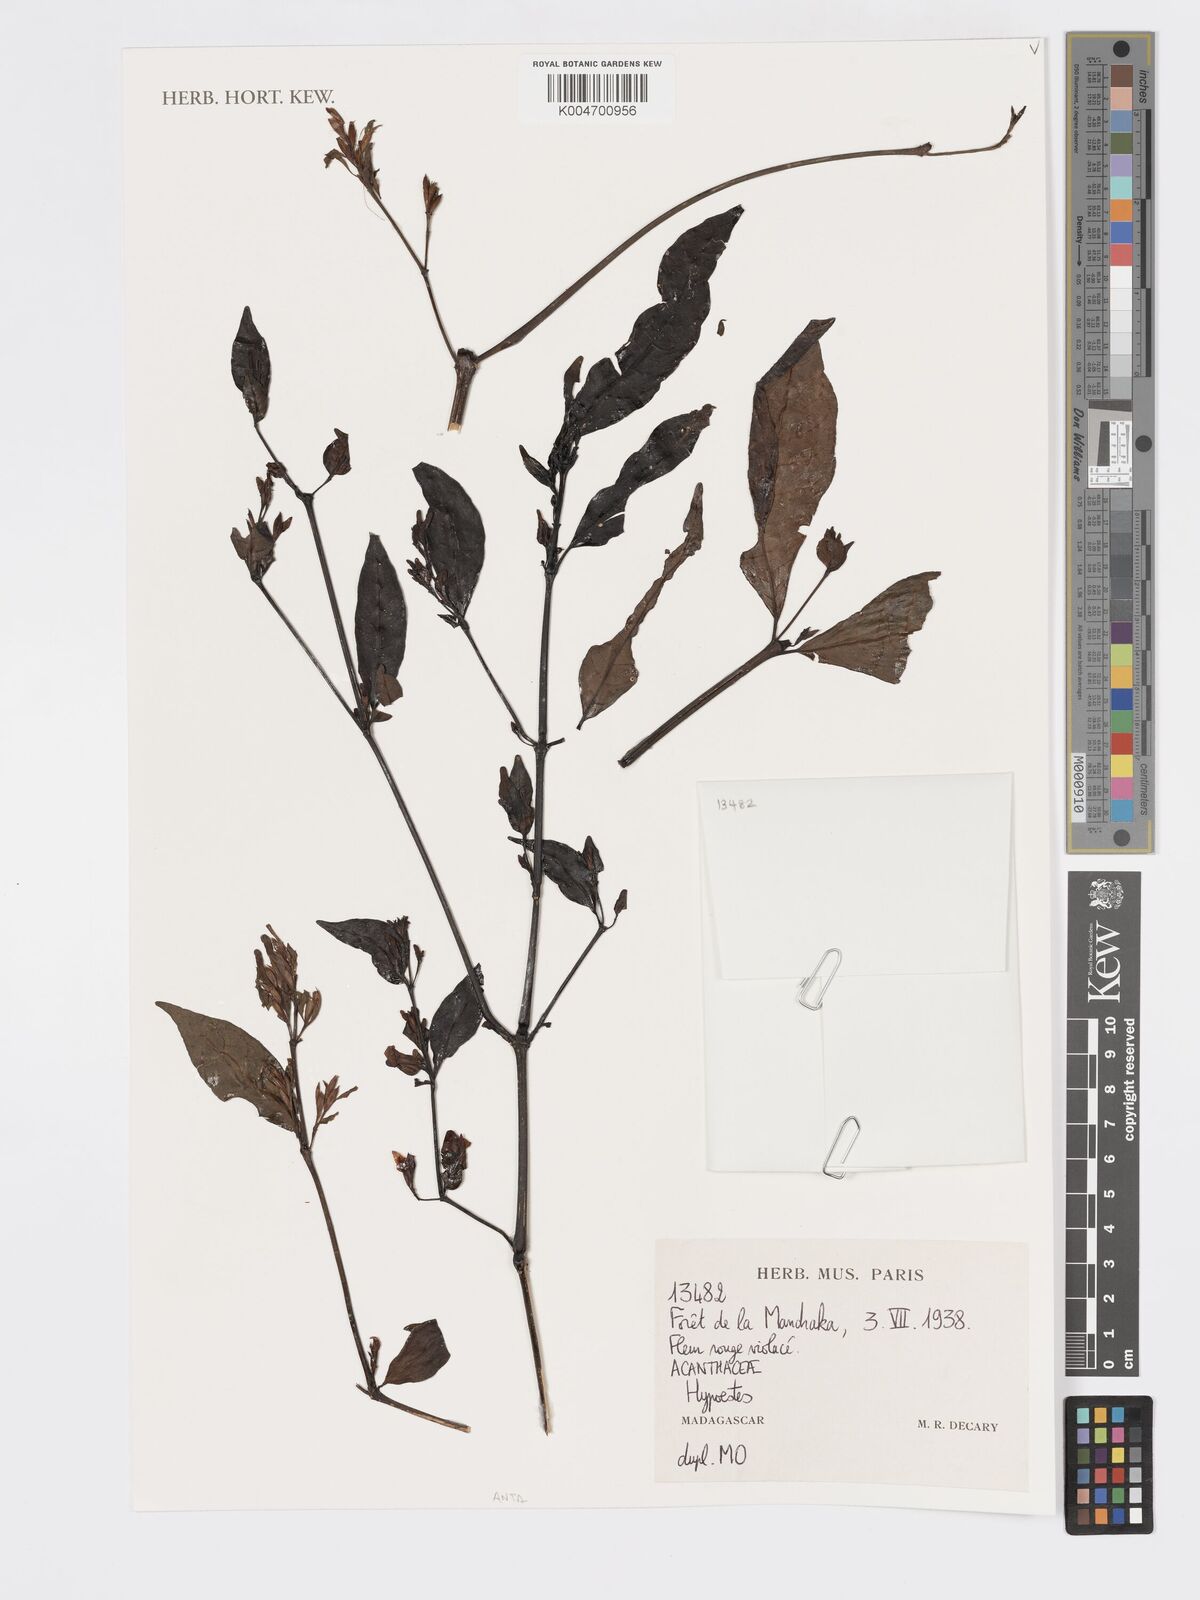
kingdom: Plantae
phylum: Tracheophyta
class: Magnoliopsida
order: Lamiales
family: Acanthaceae
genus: Hypoestes
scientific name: Hypoestes
